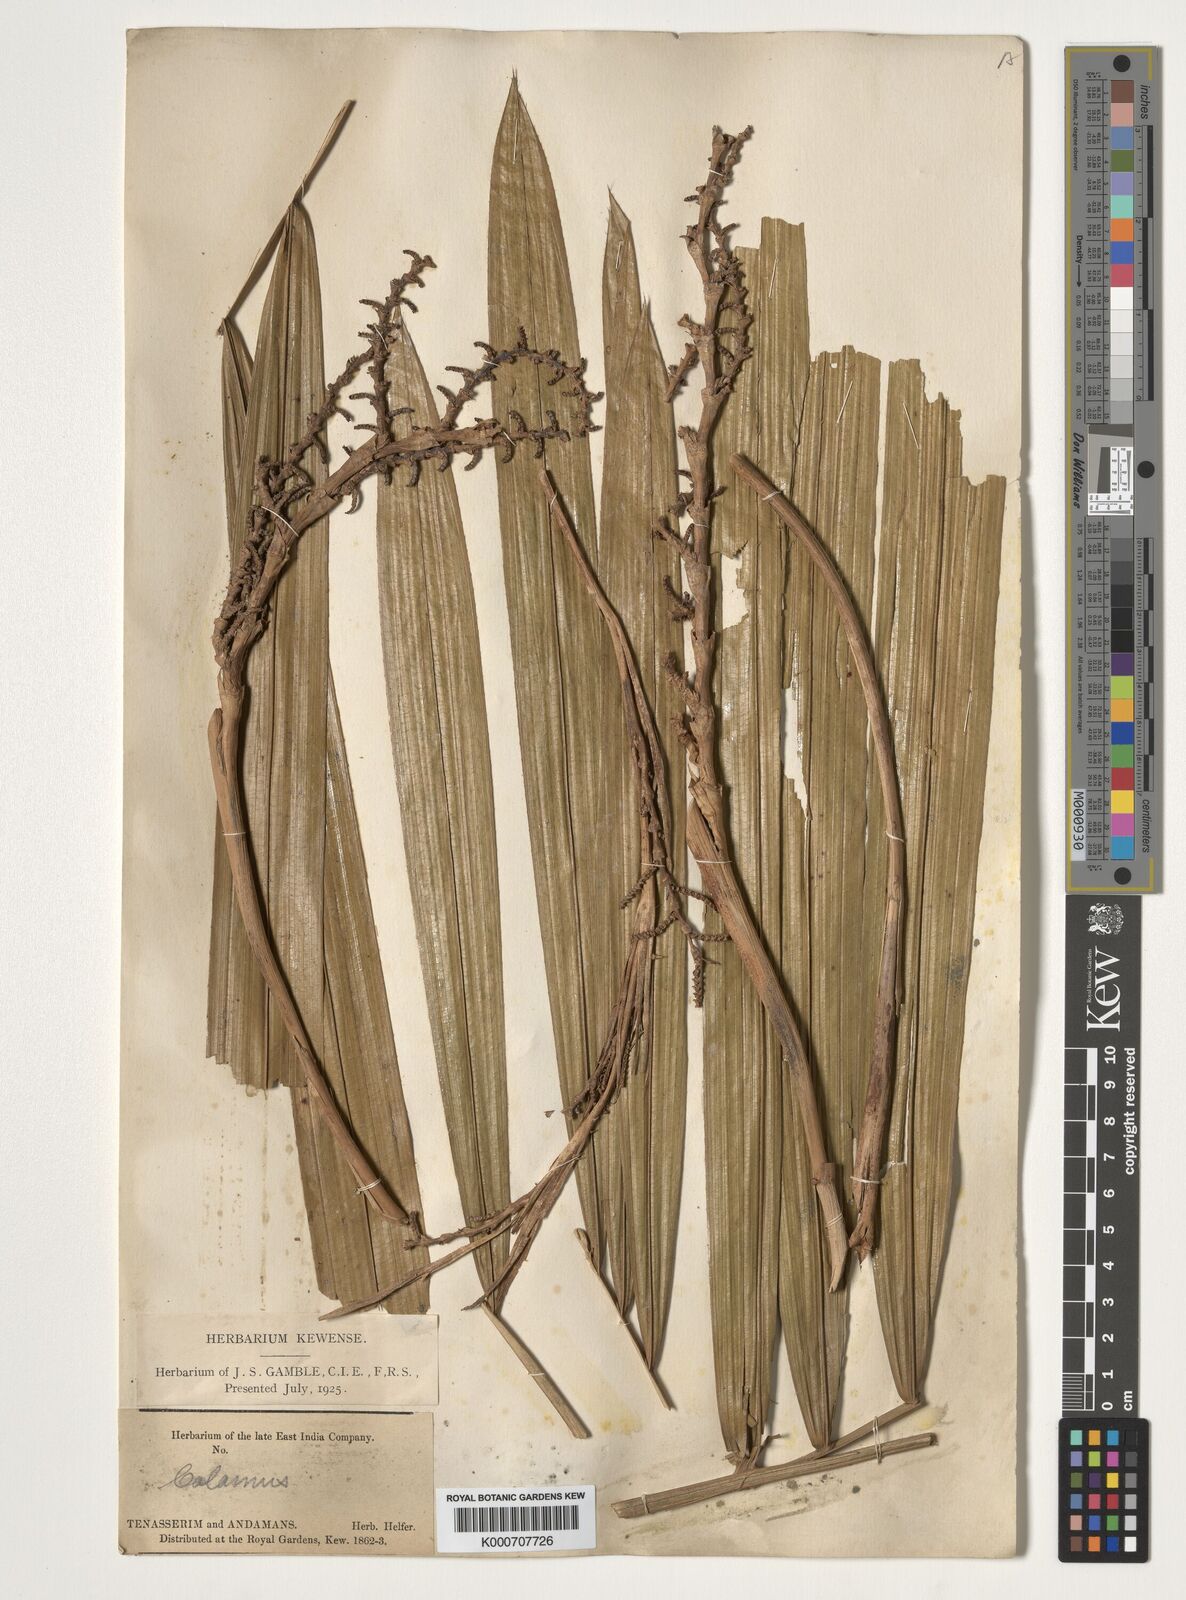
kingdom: Plantae
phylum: Tracheophyta
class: Liliopsida
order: Arecales
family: Arecaceae
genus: Calamus
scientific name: Calamus
